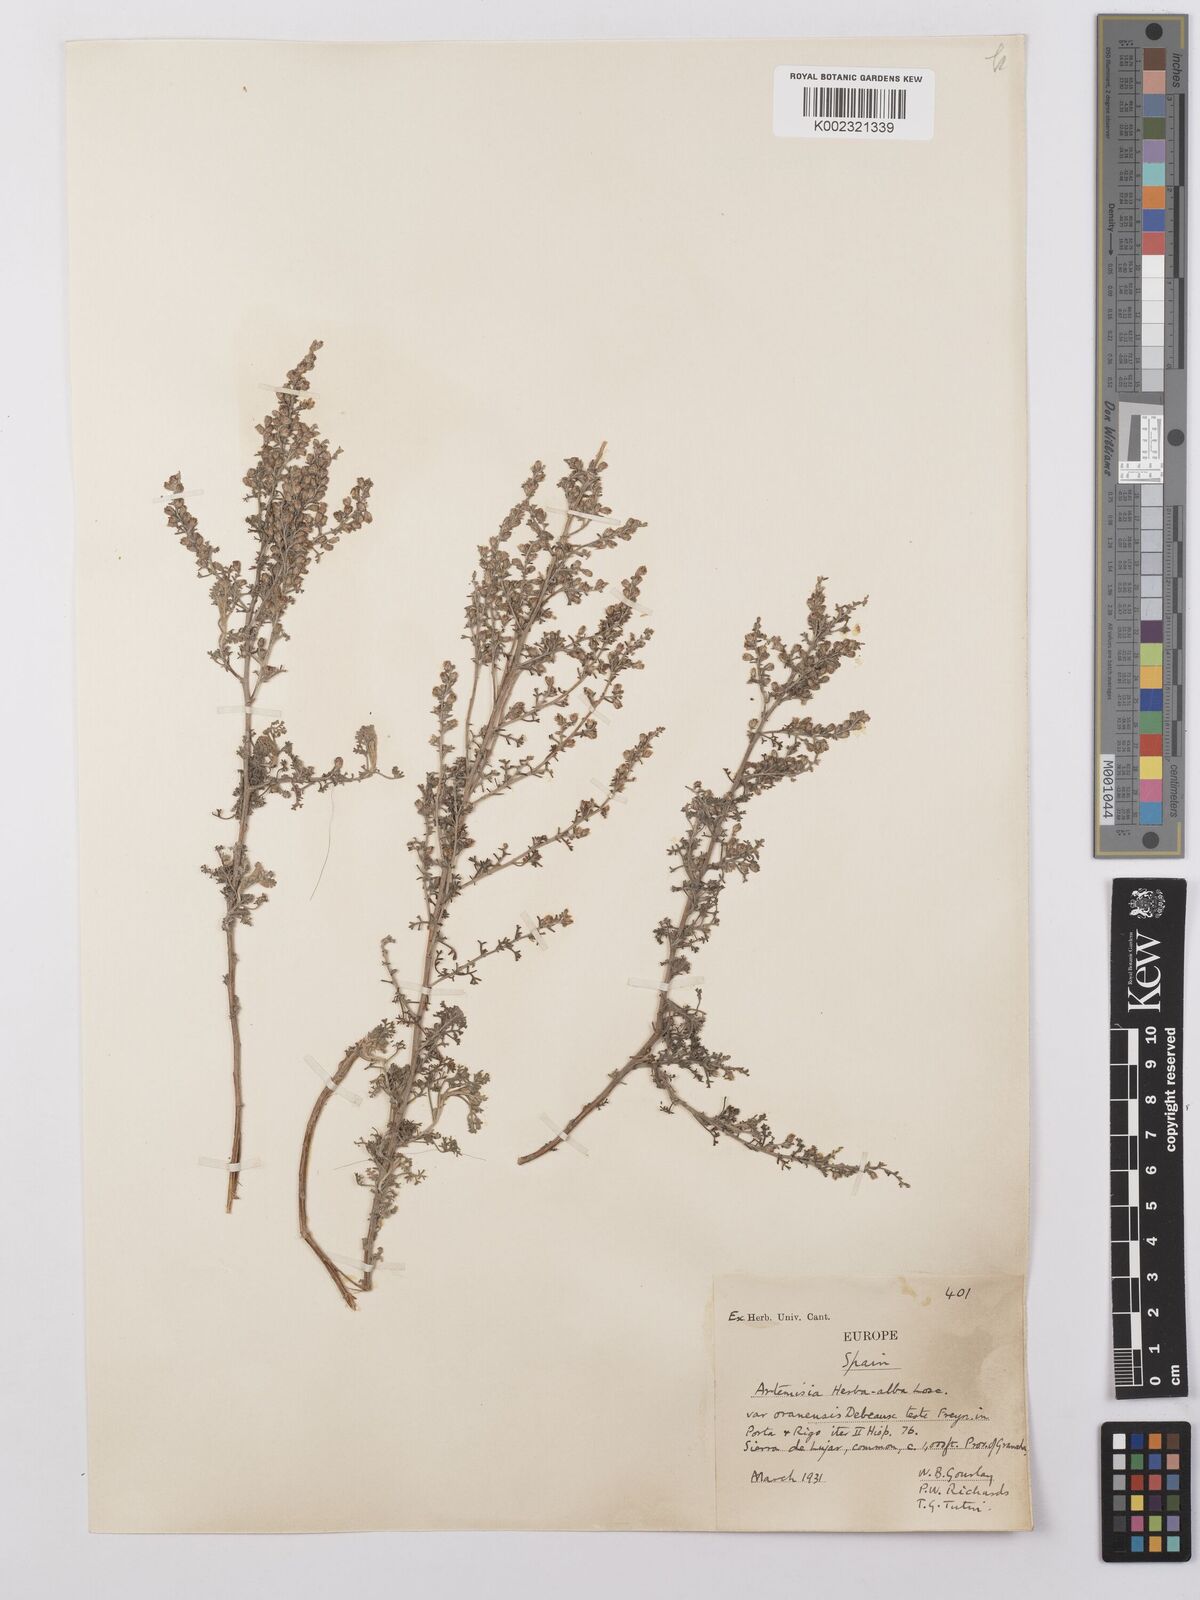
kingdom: Plantae
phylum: Tracheophyta
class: Magnoliopsida
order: Asterales
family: Asteraceae
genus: Artemisia
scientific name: Artemisia herba-alba
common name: White wormwood
